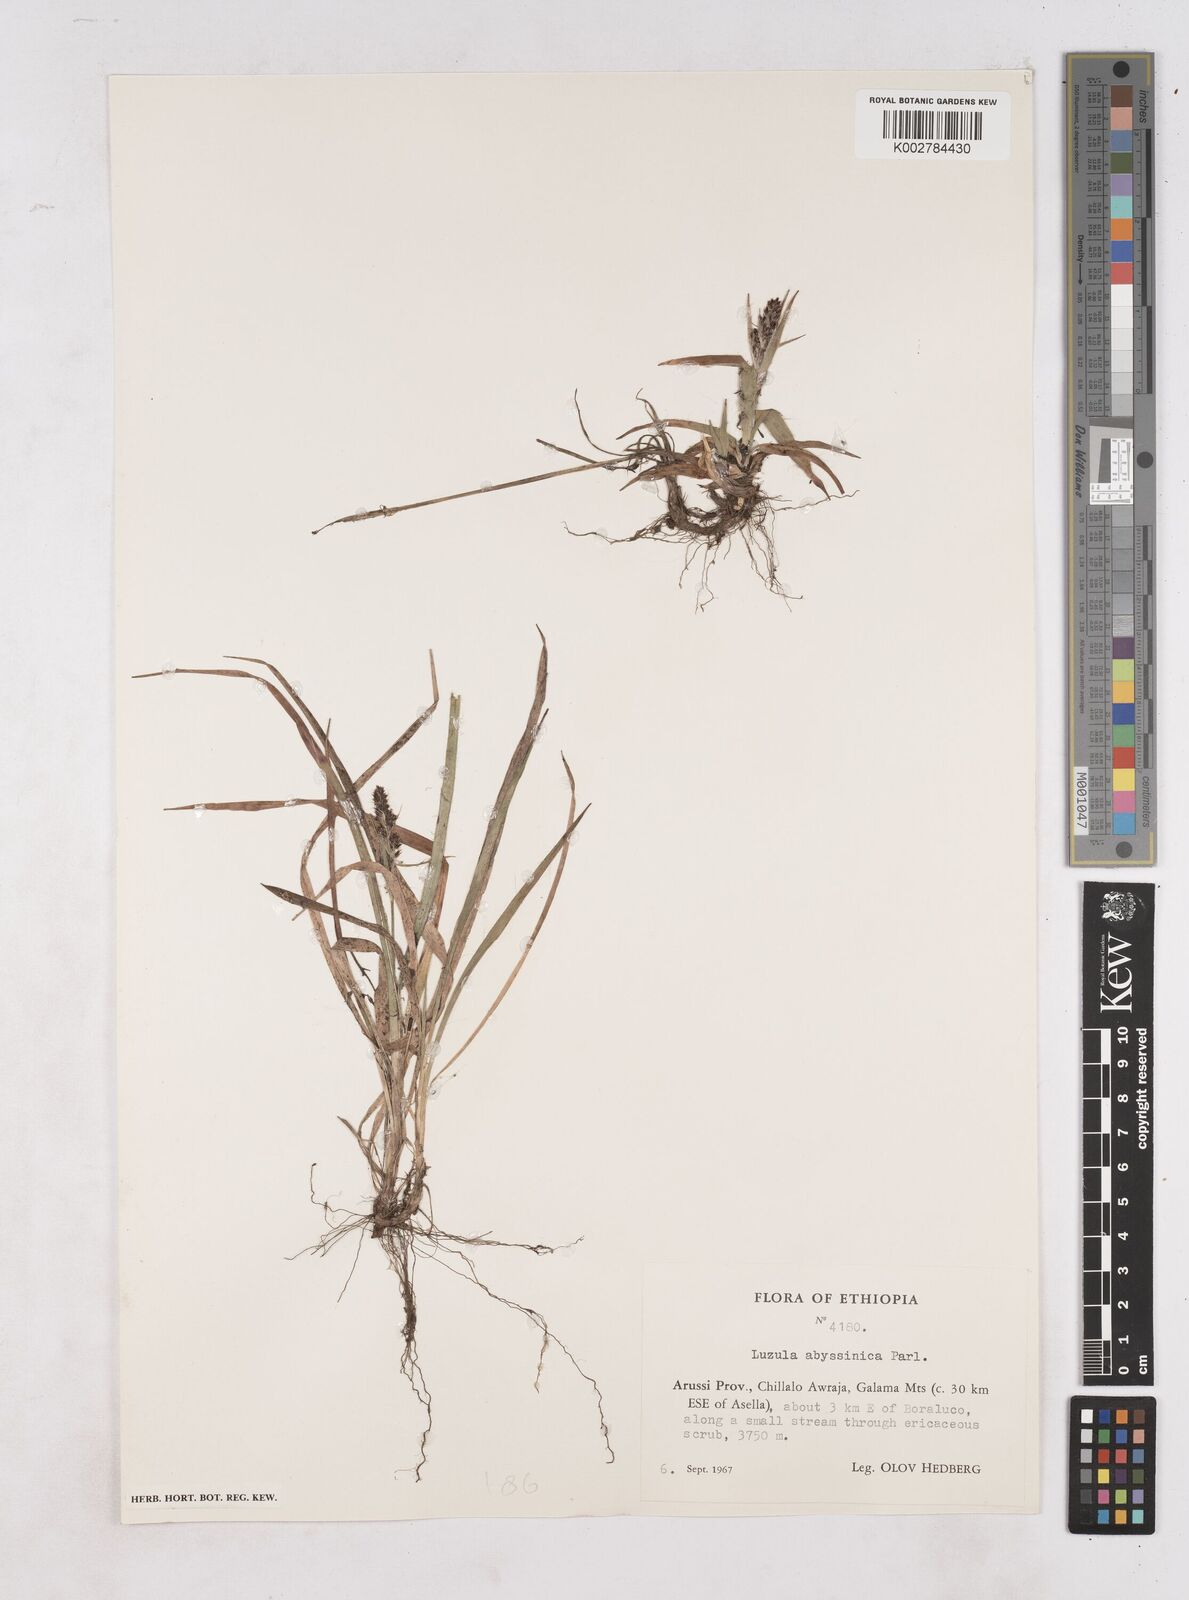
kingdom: Plantae
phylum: Tracheophyta
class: Liliopsida
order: Poales
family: Juncaceae
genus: Luzula
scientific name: Luzula abyssinica
